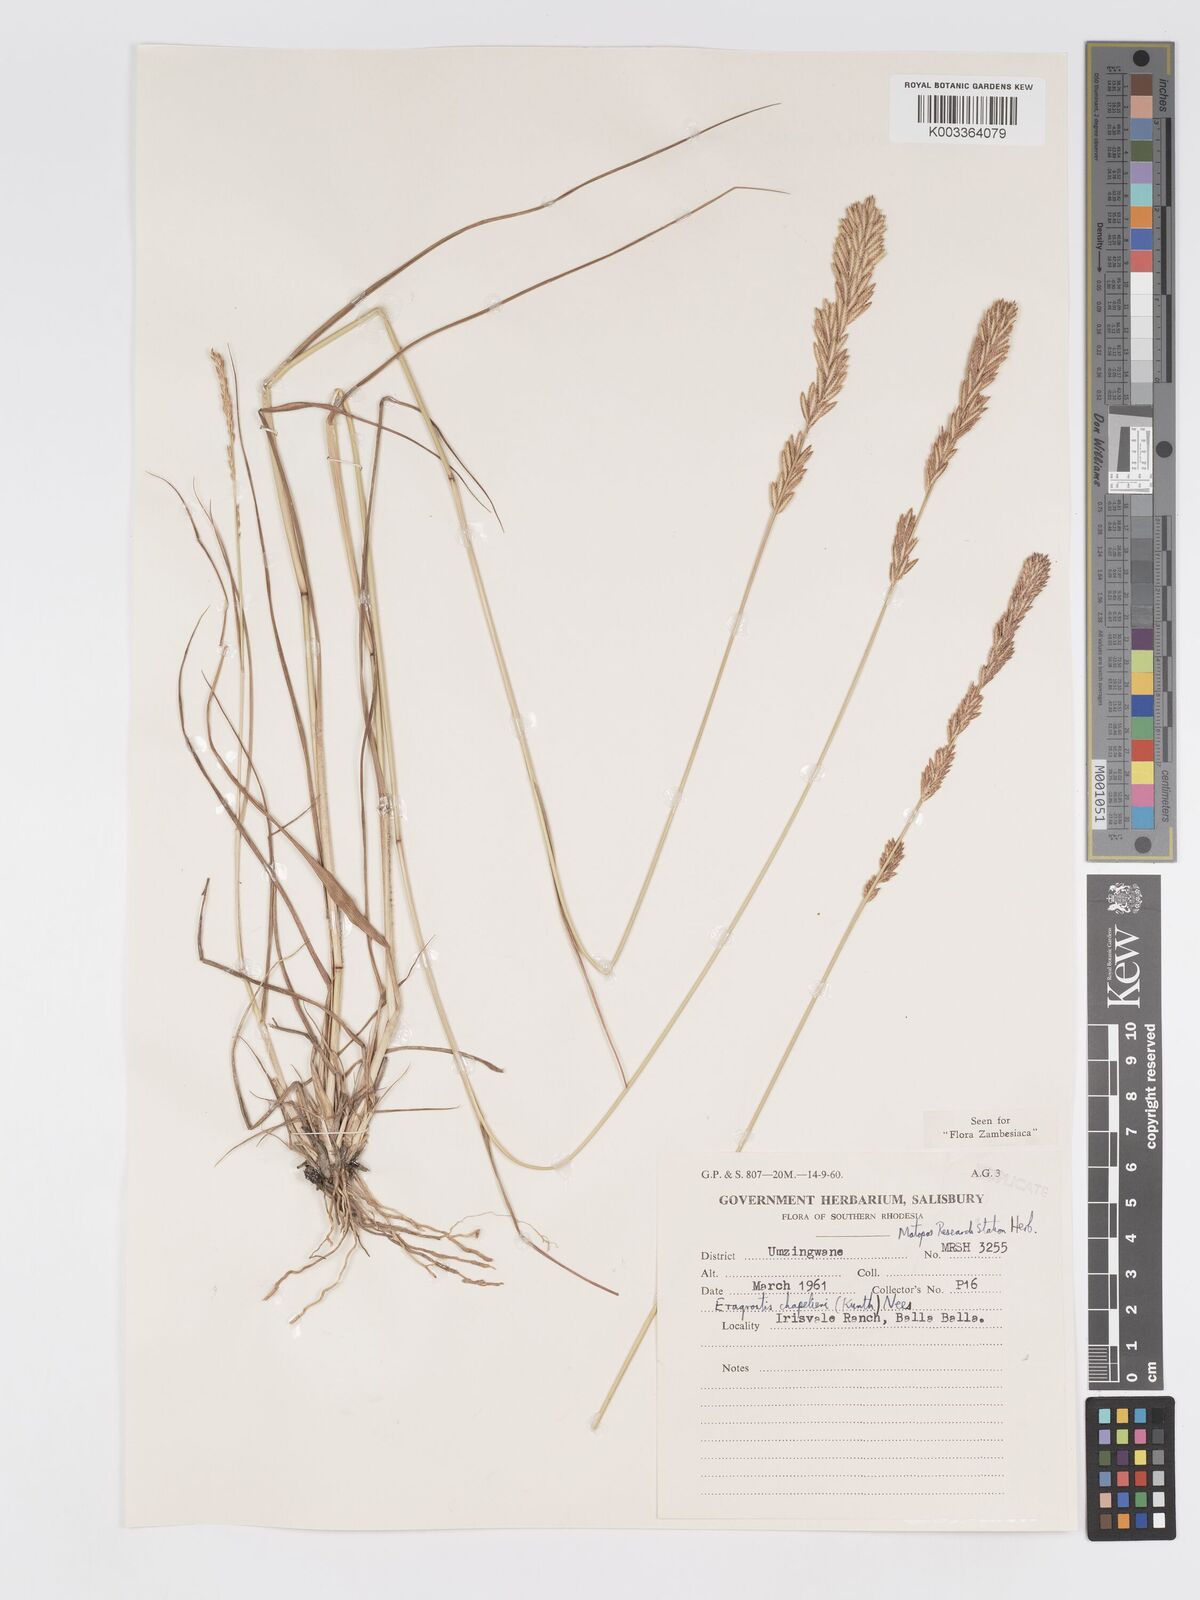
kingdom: Plantae
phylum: Tracheophyta
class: Liliopsida
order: Poales
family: Poaceae
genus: Eragrostis
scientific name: Eragrostis chapelieri
